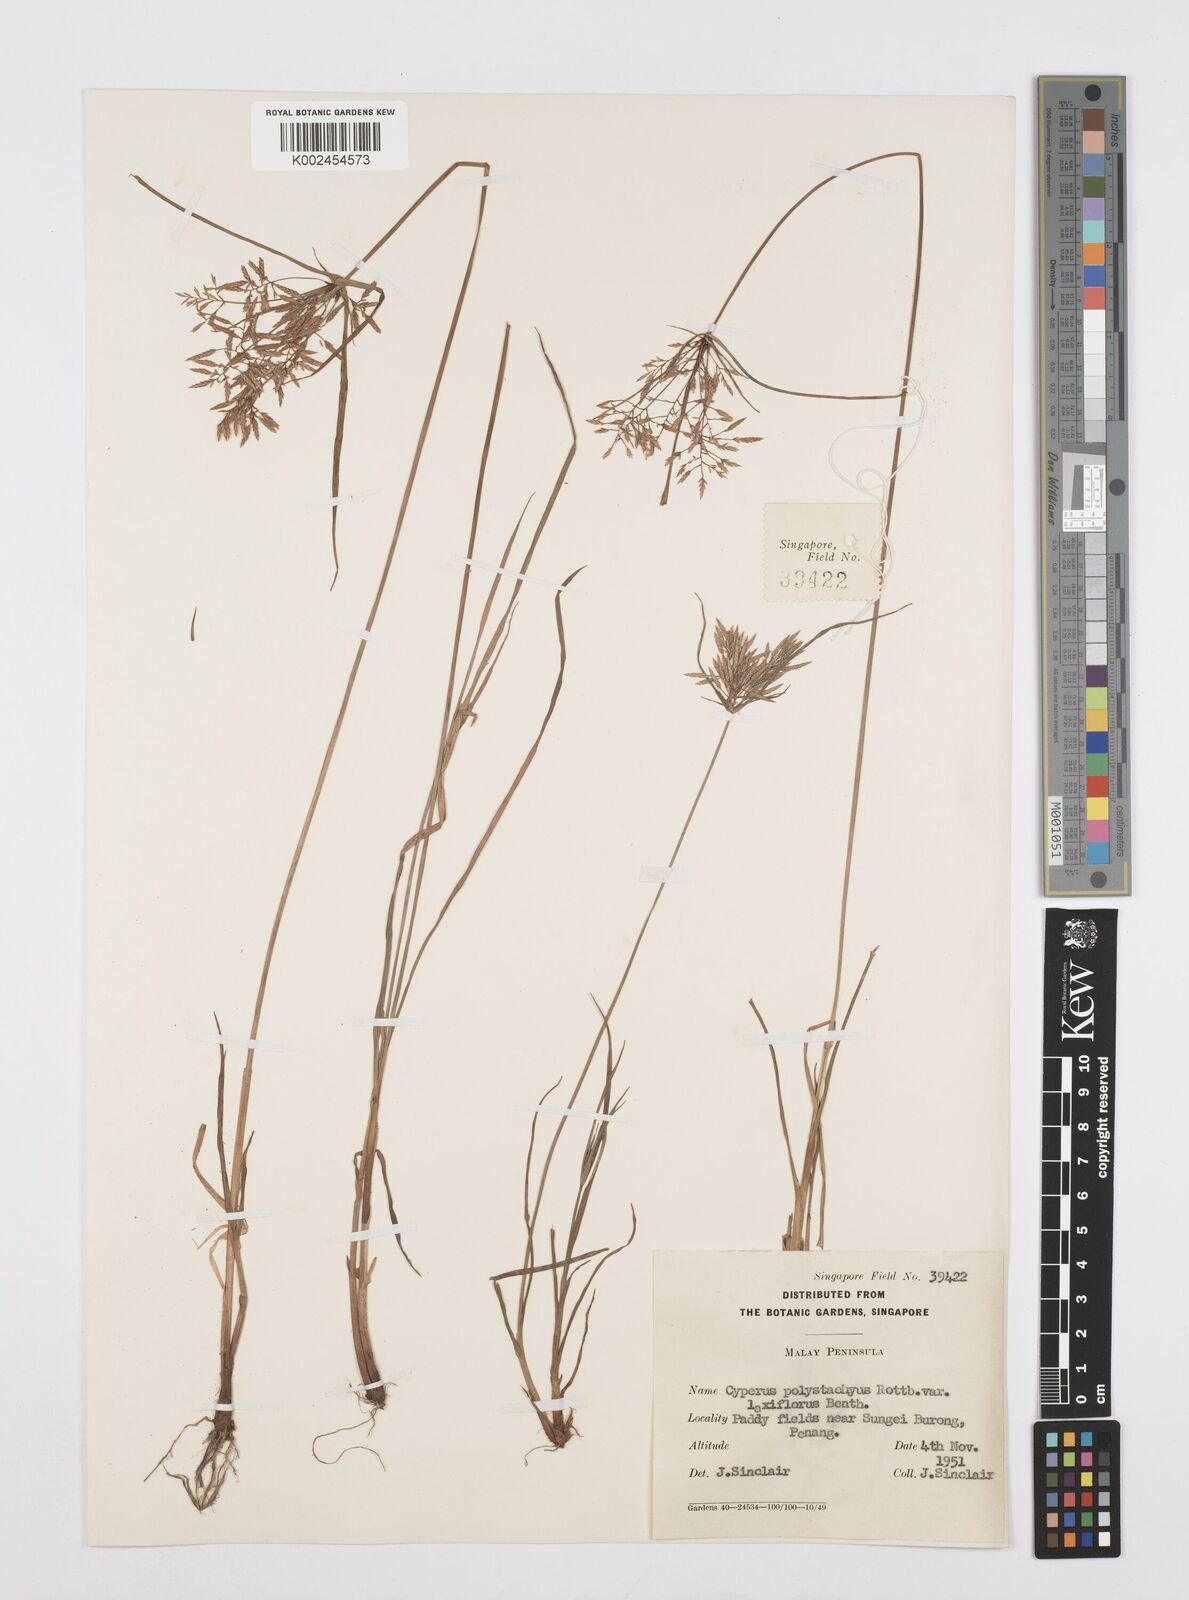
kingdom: Plantae
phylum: Tracheophyta
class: Liliopsida
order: Poales
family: Cyperaceae
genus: Cyperus
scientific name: Cyperus polystachyos
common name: Bunchy flat sedge
